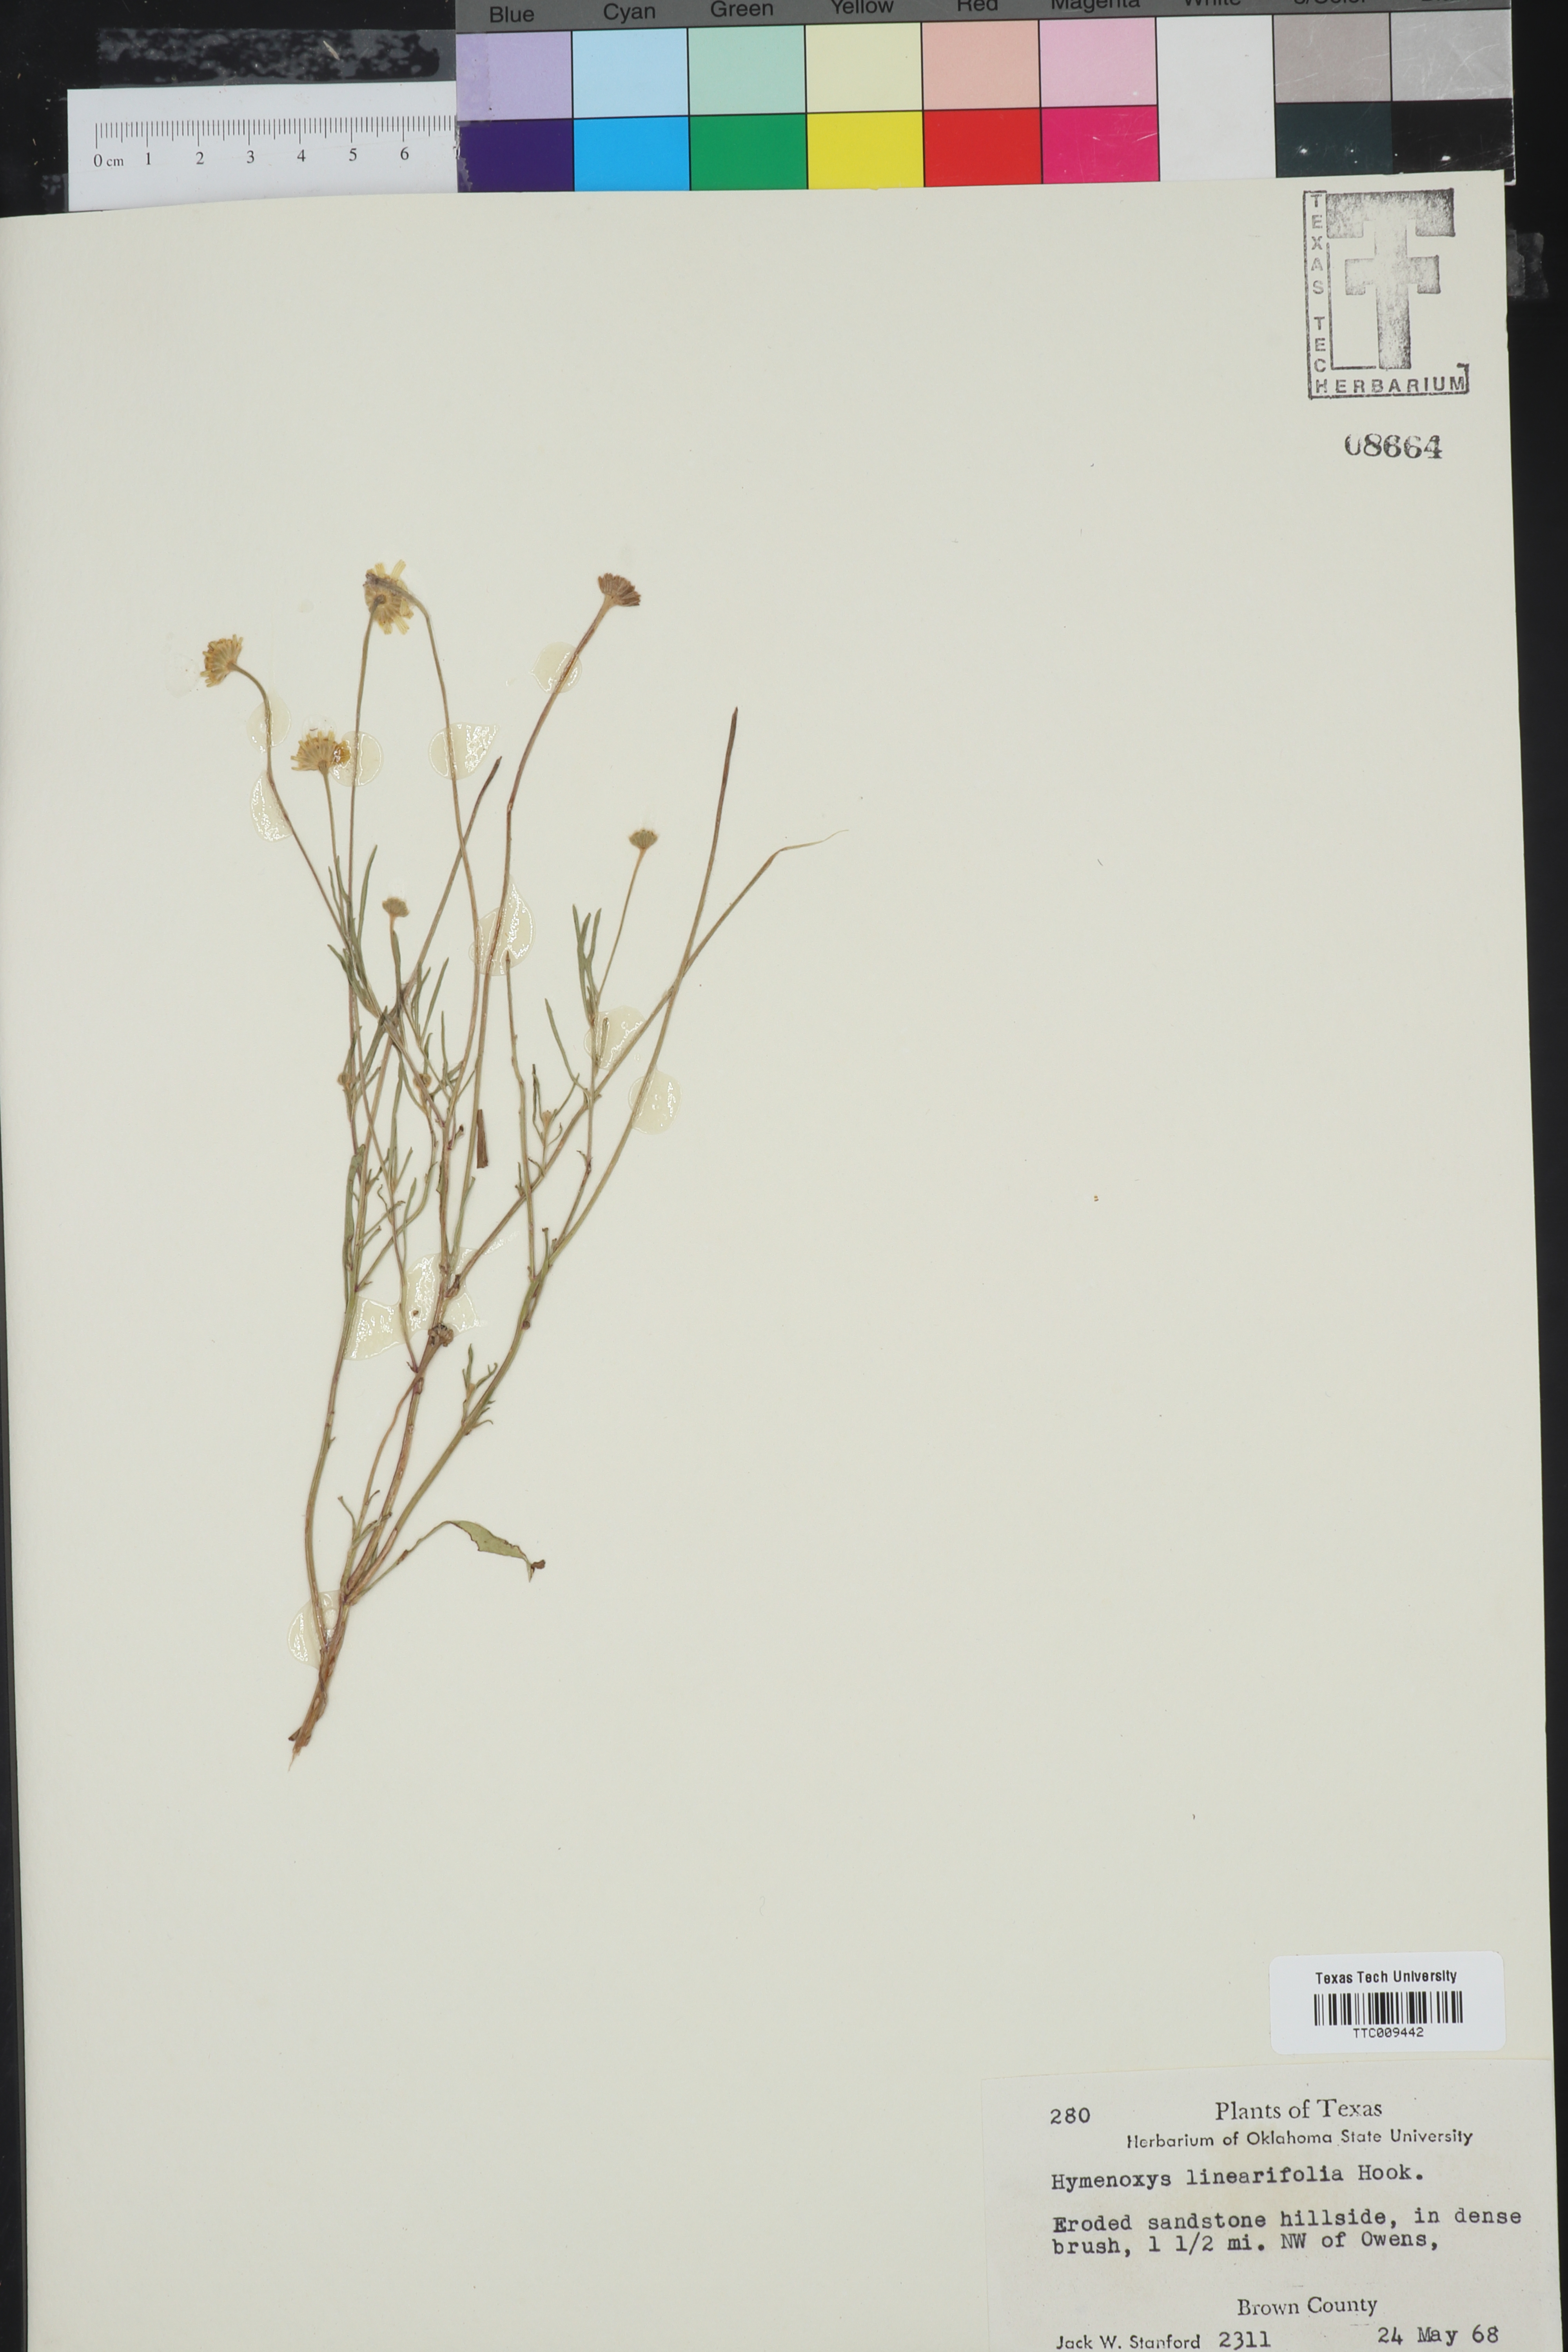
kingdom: Plantae
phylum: Tracheophyta
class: Magnoliopsida
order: Asterales
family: Asteraceae
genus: Tetraneuris
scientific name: Tetraneuris linearifolia
